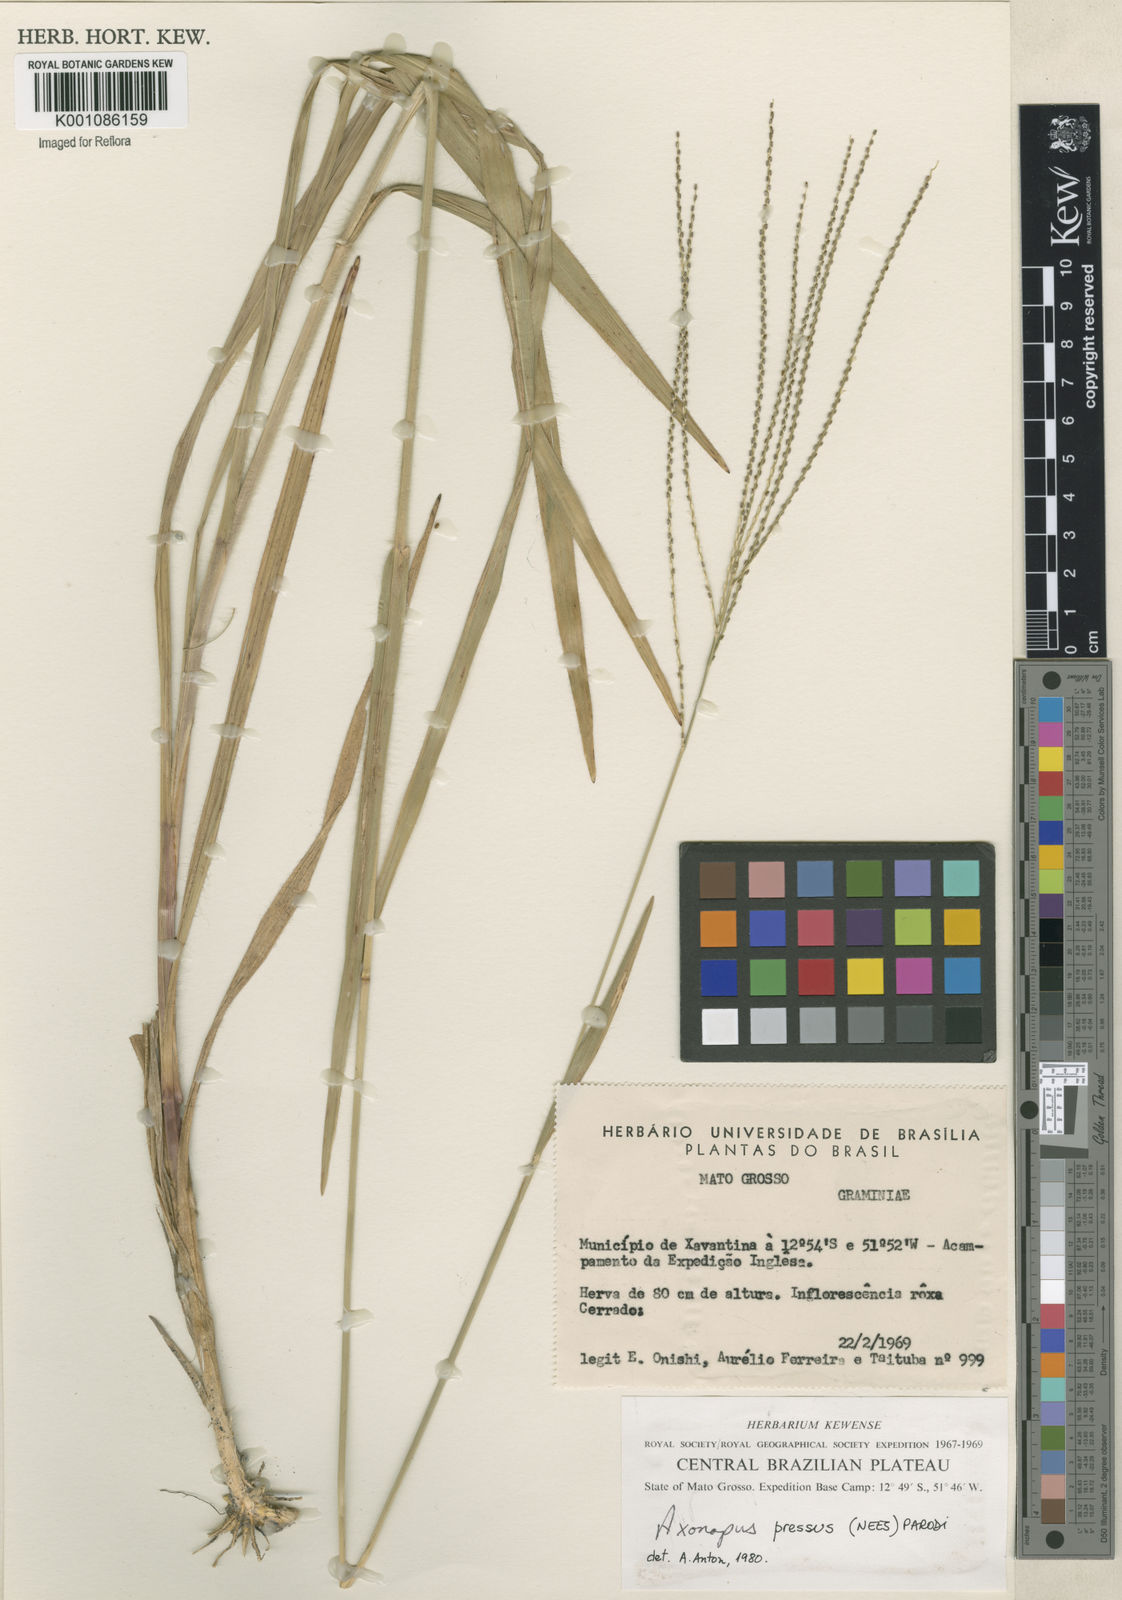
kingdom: Plantae
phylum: Tracheophyta
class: Liliopsida
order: Poales
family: Poaceae
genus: Axonopus
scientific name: Axonopus pressus
